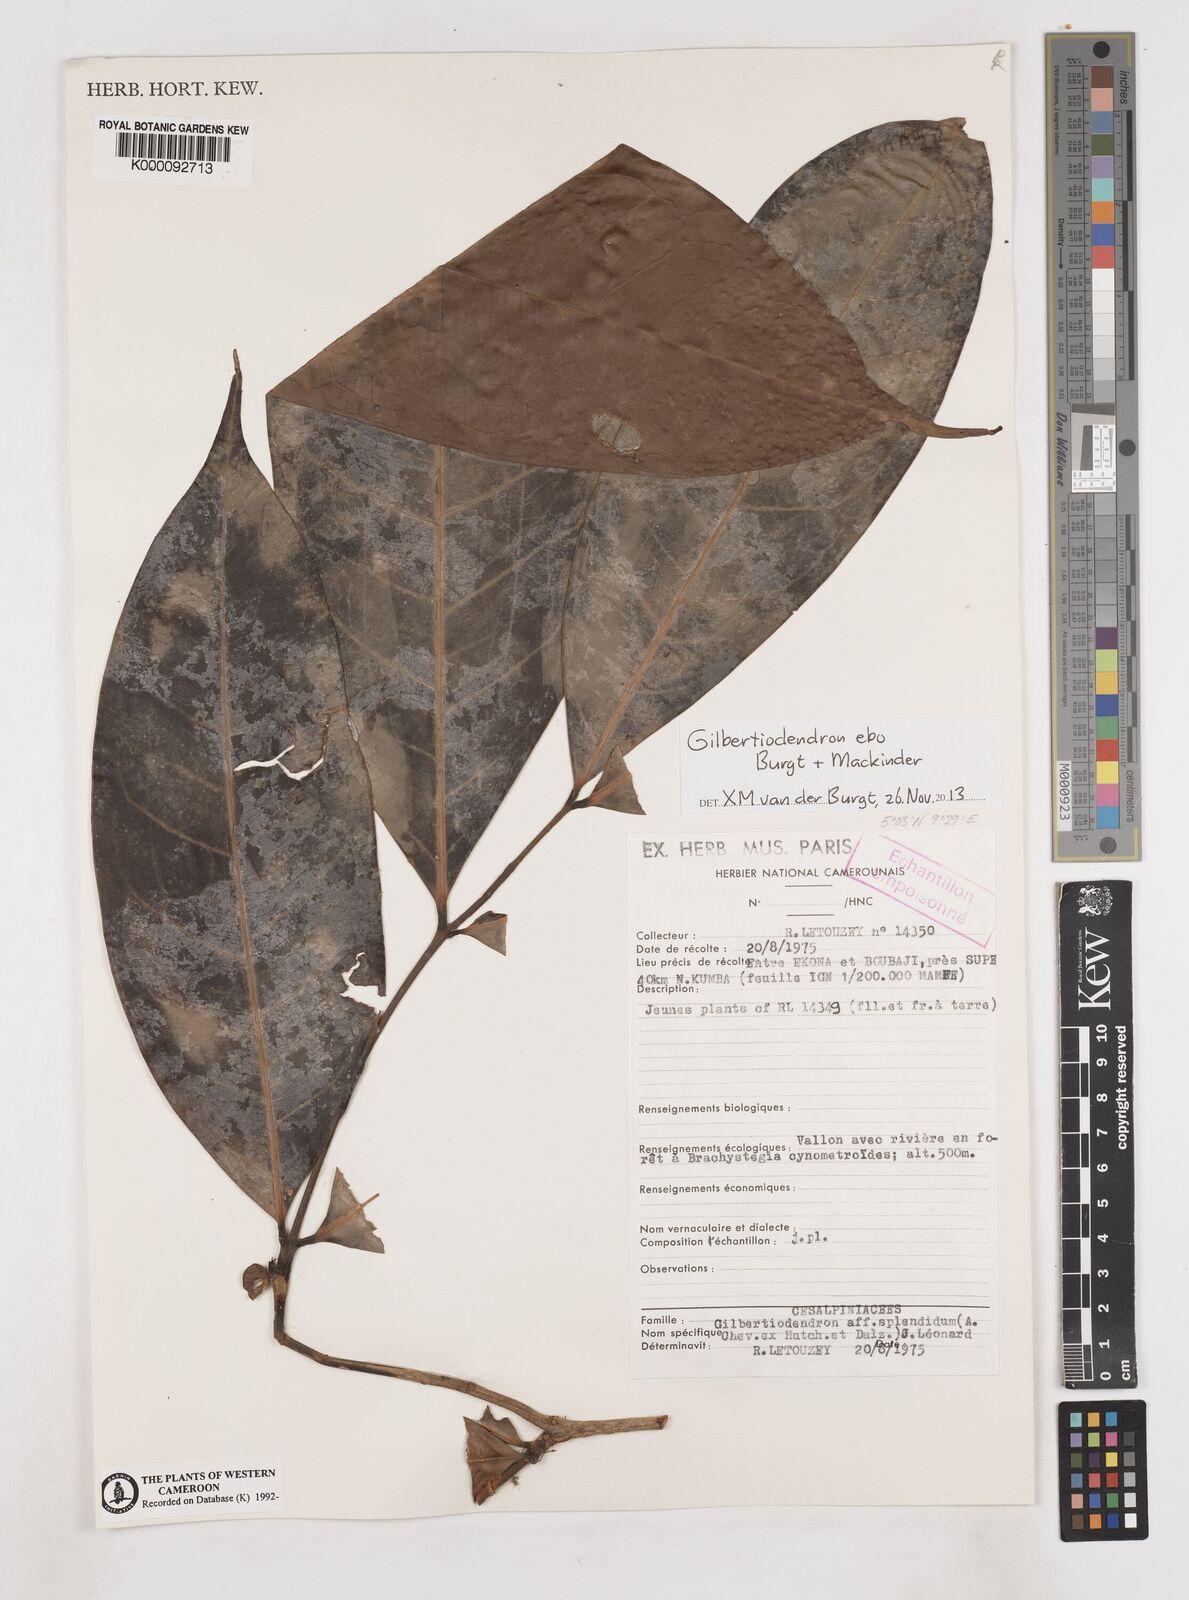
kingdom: Plantae
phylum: Tracheophyta
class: Magnoliopsida
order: Fabales
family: Fabaceae
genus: Gilbertiodendron
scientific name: Gilbertiodendron ebo
